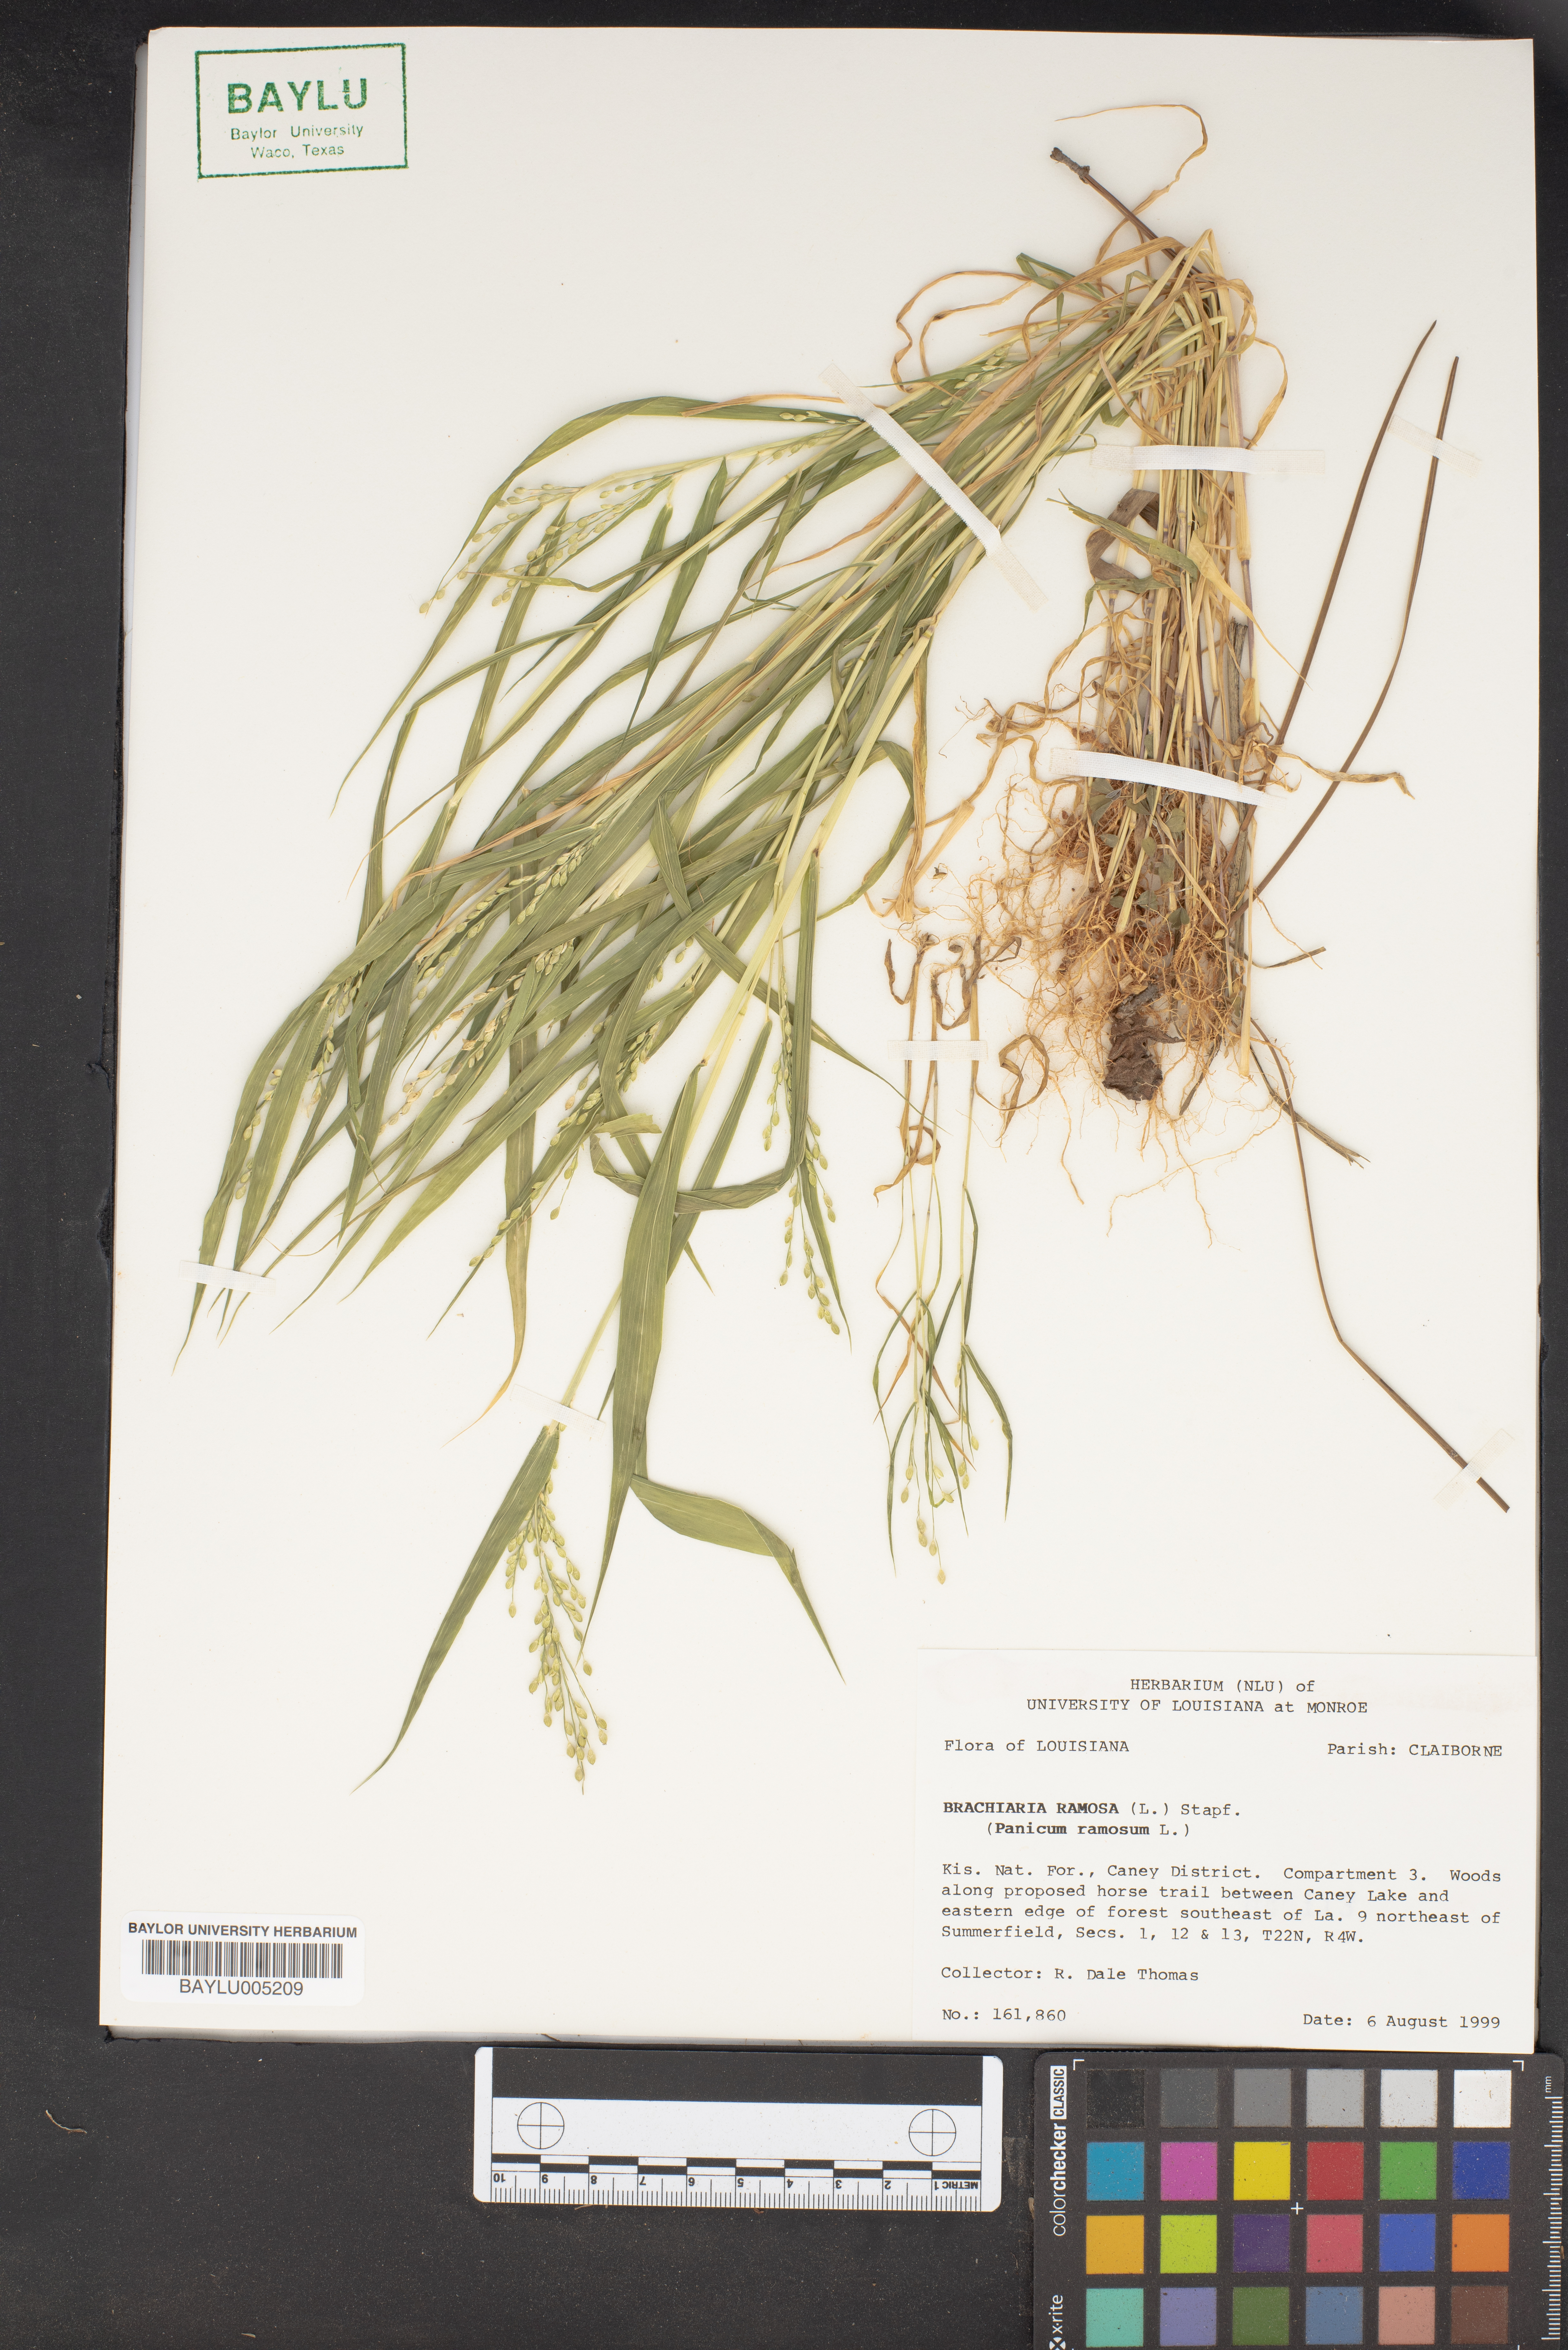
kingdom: Plantae
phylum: Tracheophyta
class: Liliopsida
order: Poales
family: Poaceae
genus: Urochloa
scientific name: Urochloa ramosa
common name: Browntop millet
